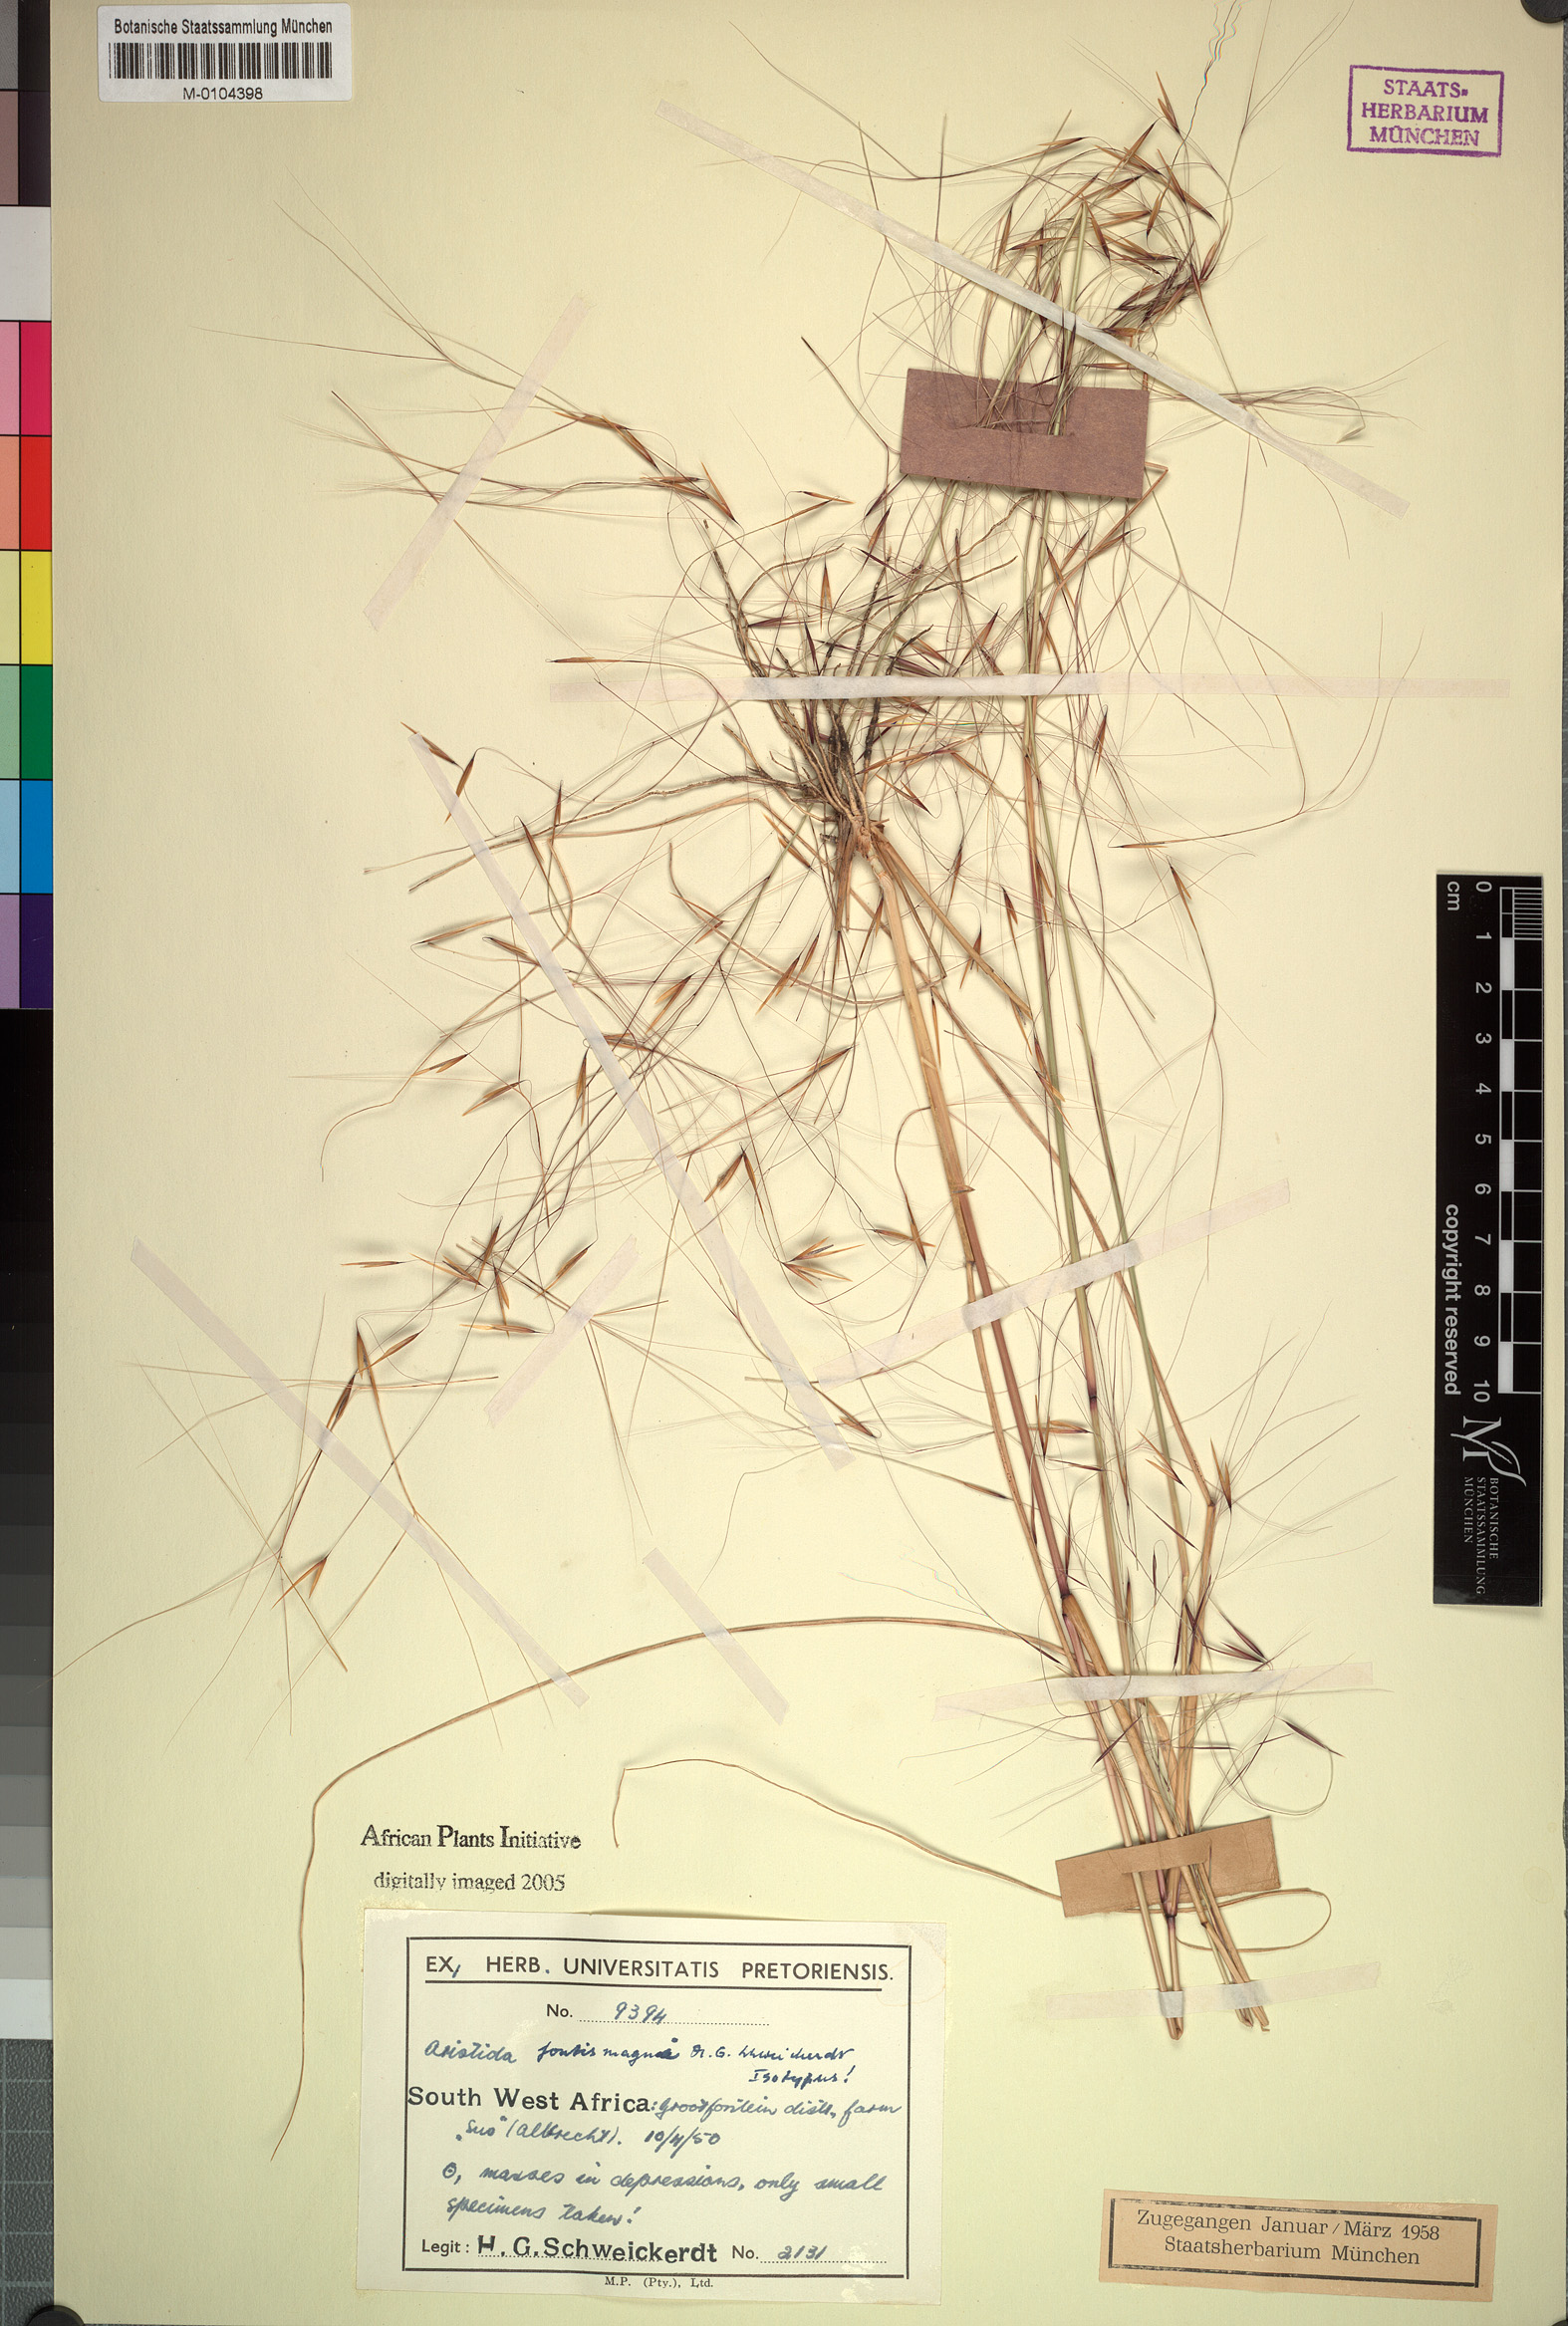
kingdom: Plantae
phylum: Tracheophyta
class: Liliopsida
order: Poales
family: Poaceae
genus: Aristida
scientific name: Aristida stipoides
